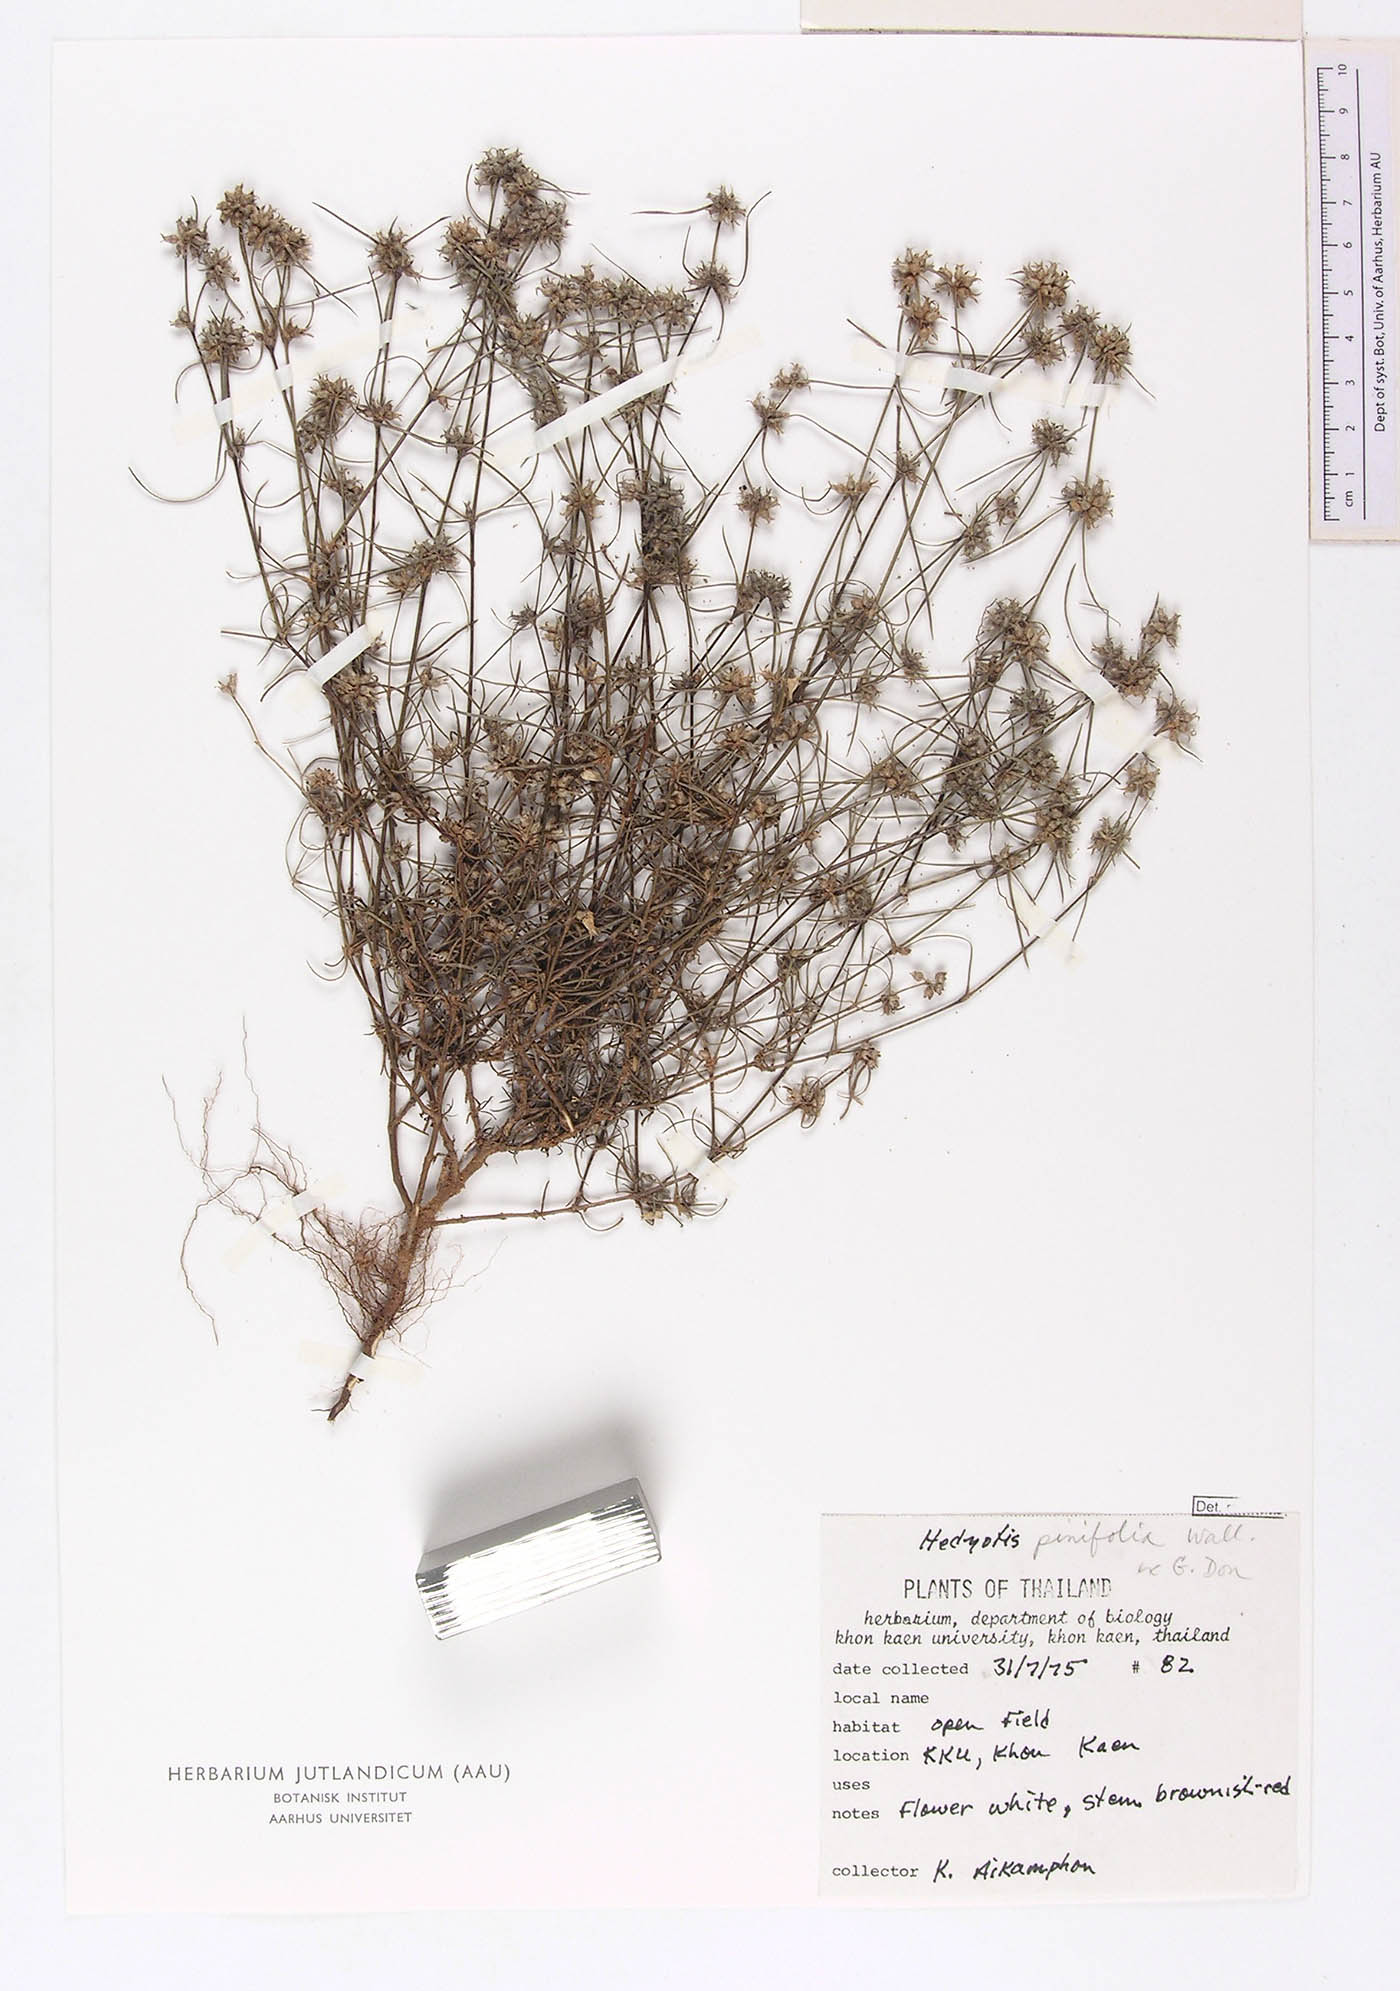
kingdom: Plantae
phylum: Tracheophyta
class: Magnoliopsida
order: Gentianales
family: Rubiaceae
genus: Scleromitrion
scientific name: Scleromitrion pinifolium
